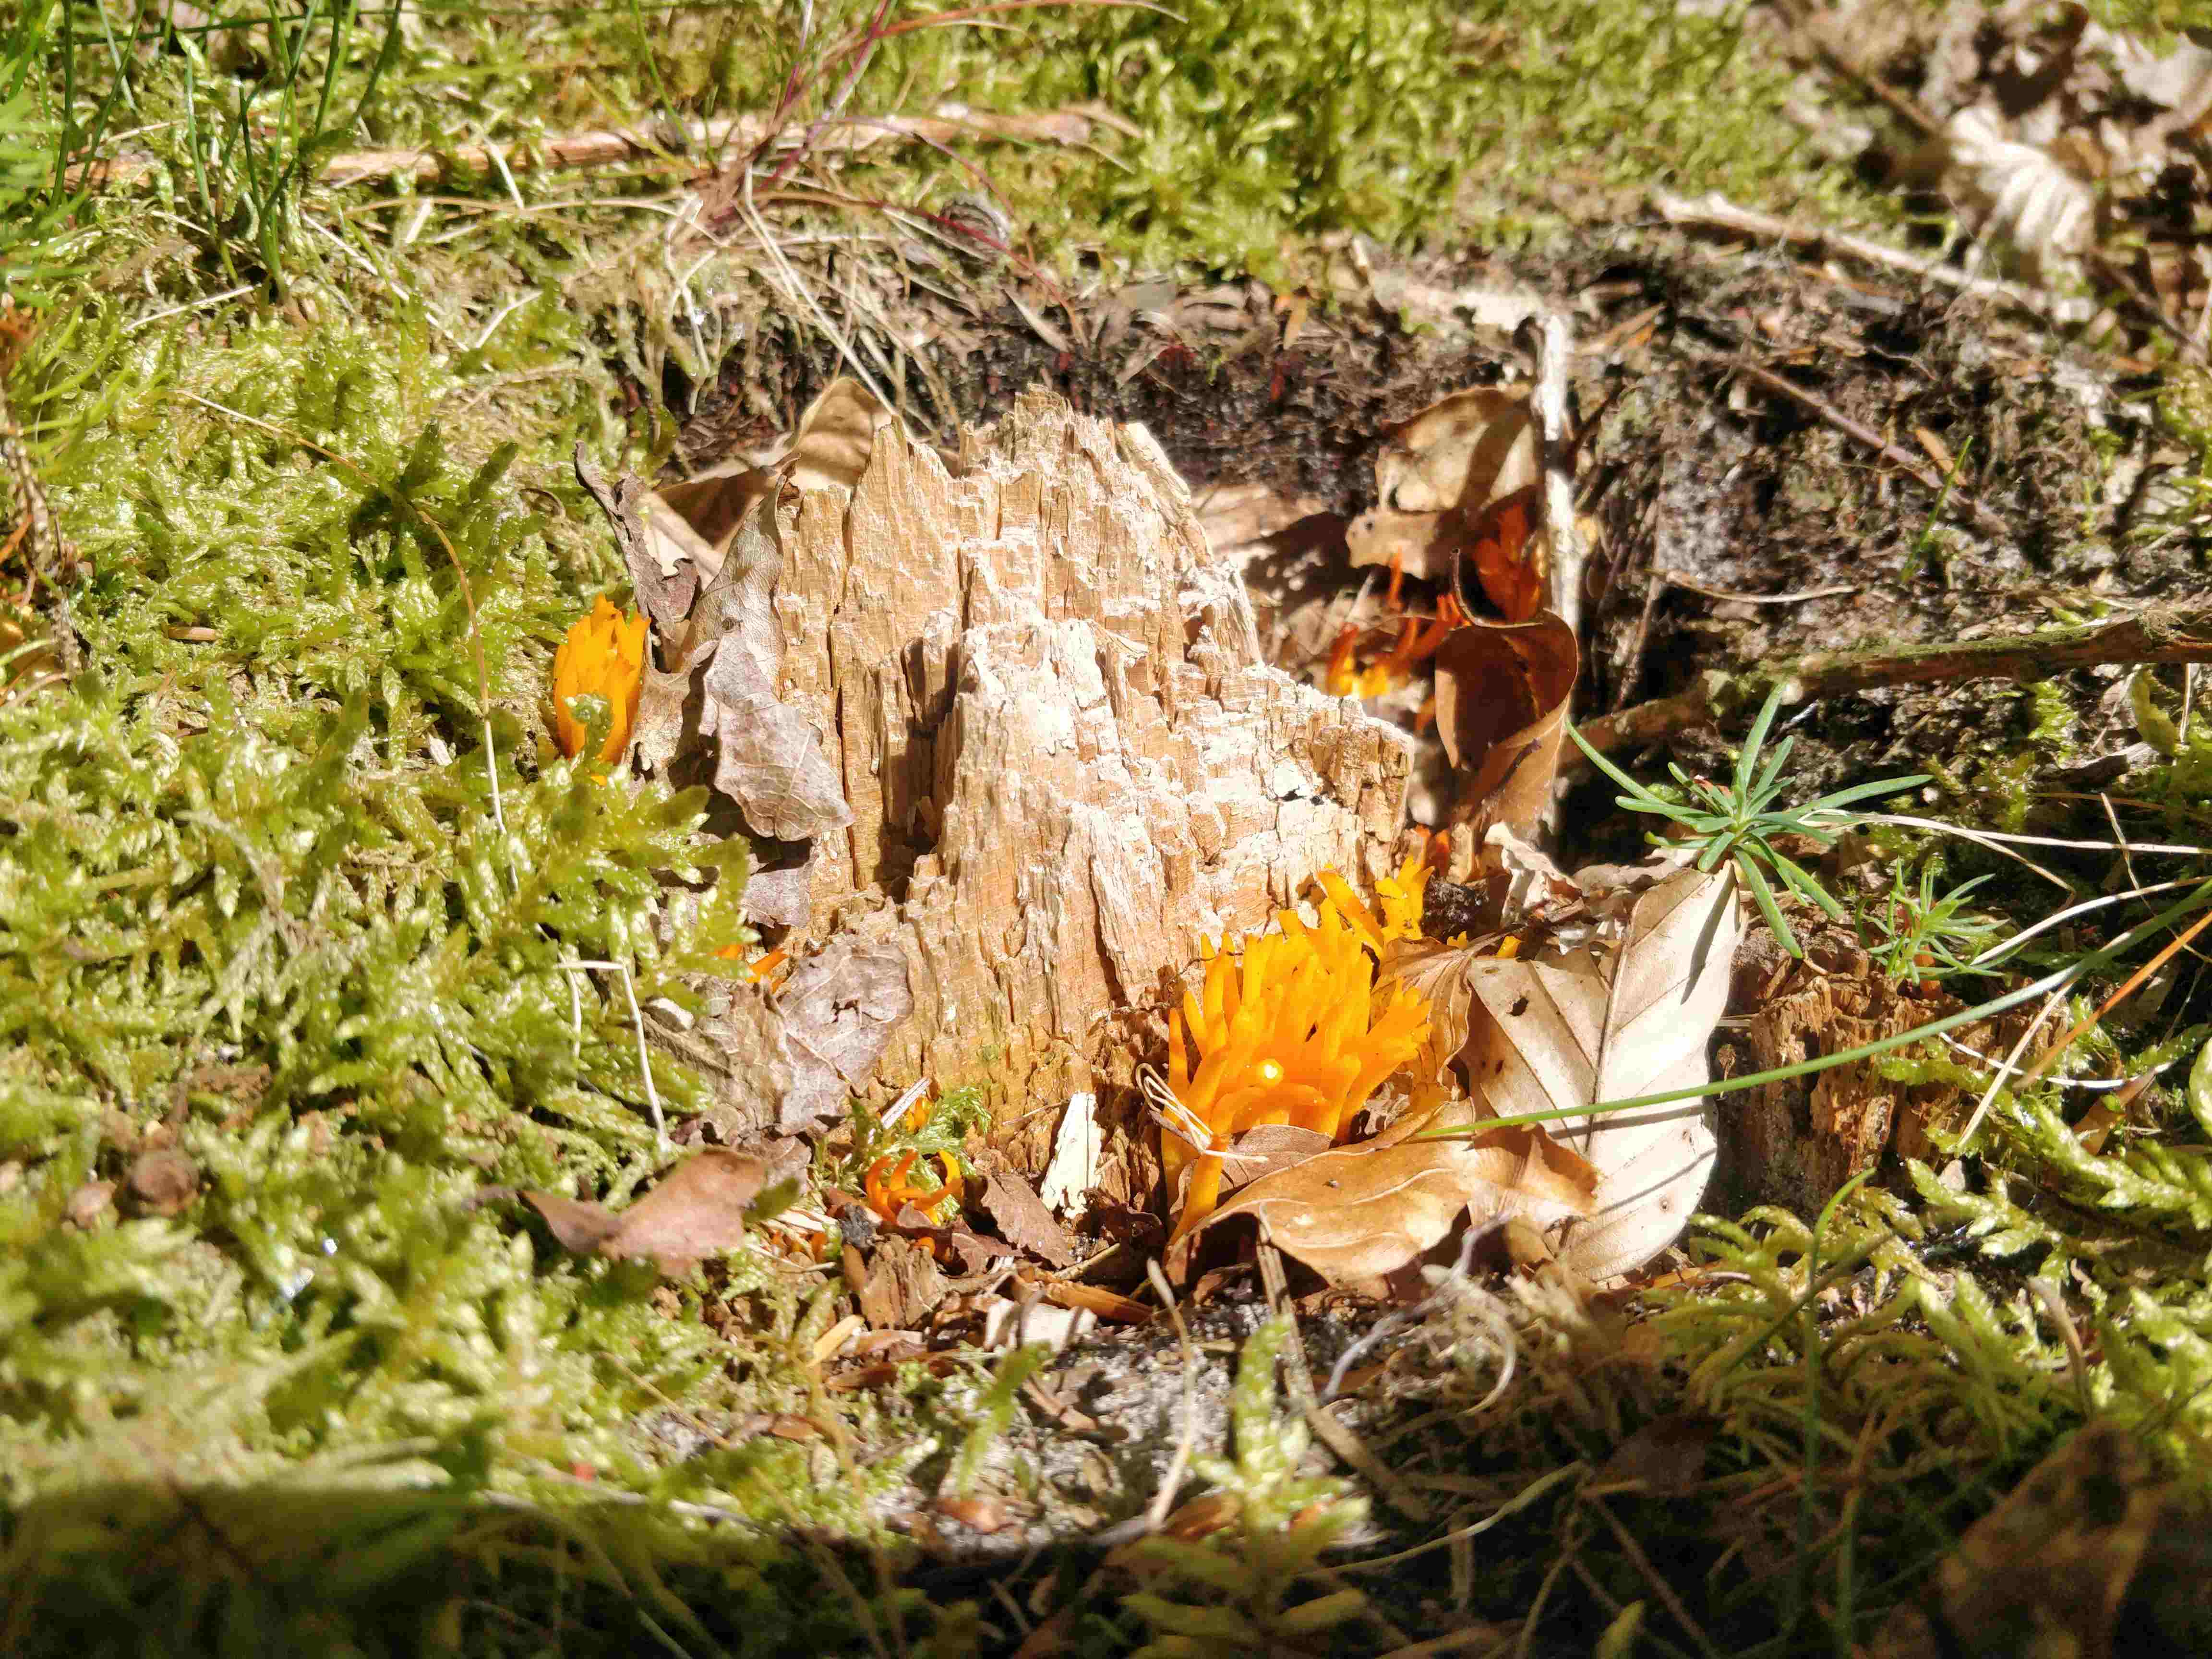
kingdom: Fungi
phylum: Basidiomycota
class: Dacrymycetes
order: Dacrymycetales
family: Dacrymycetaceae
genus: Calocera
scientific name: Calocera viscosa
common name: almindelig guldgaffel
